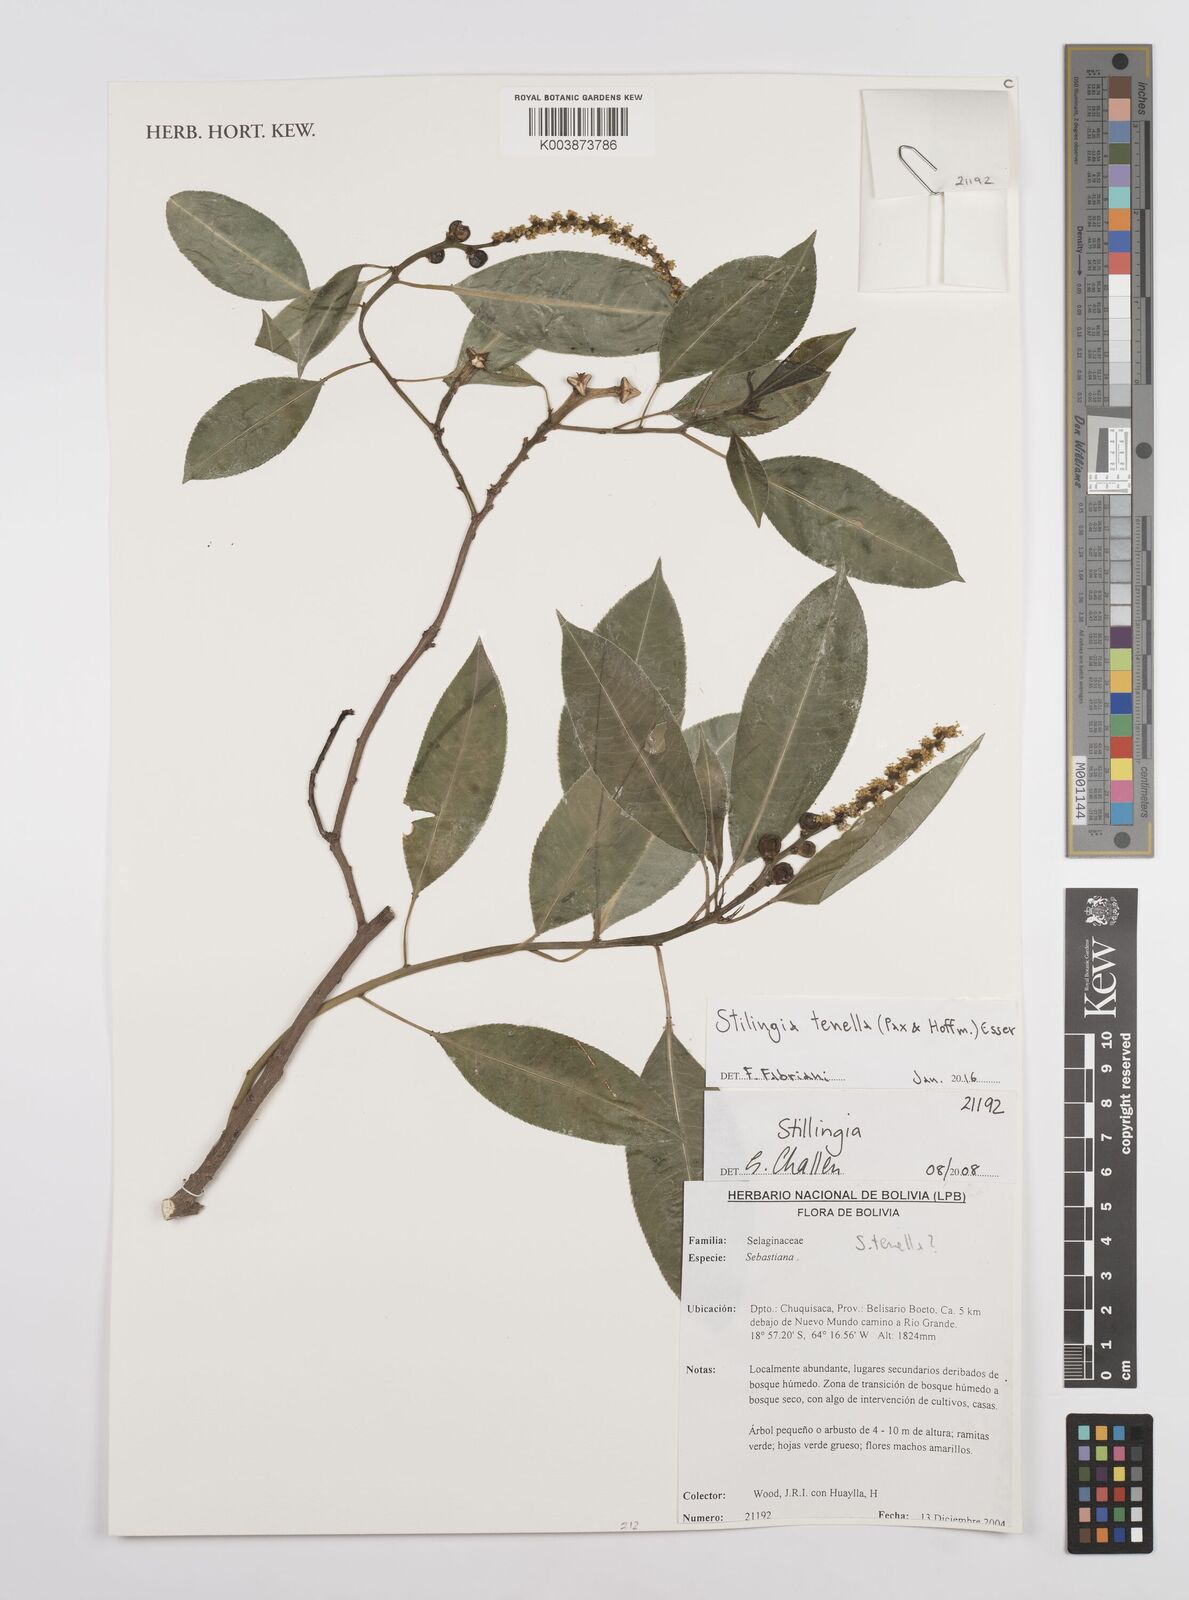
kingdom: Plantae
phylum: Tracheophyta
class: Magnoliopsida
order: Malpighiales
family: Euphorbiaceae
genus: Stillingia
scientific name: Stillingia tenella
